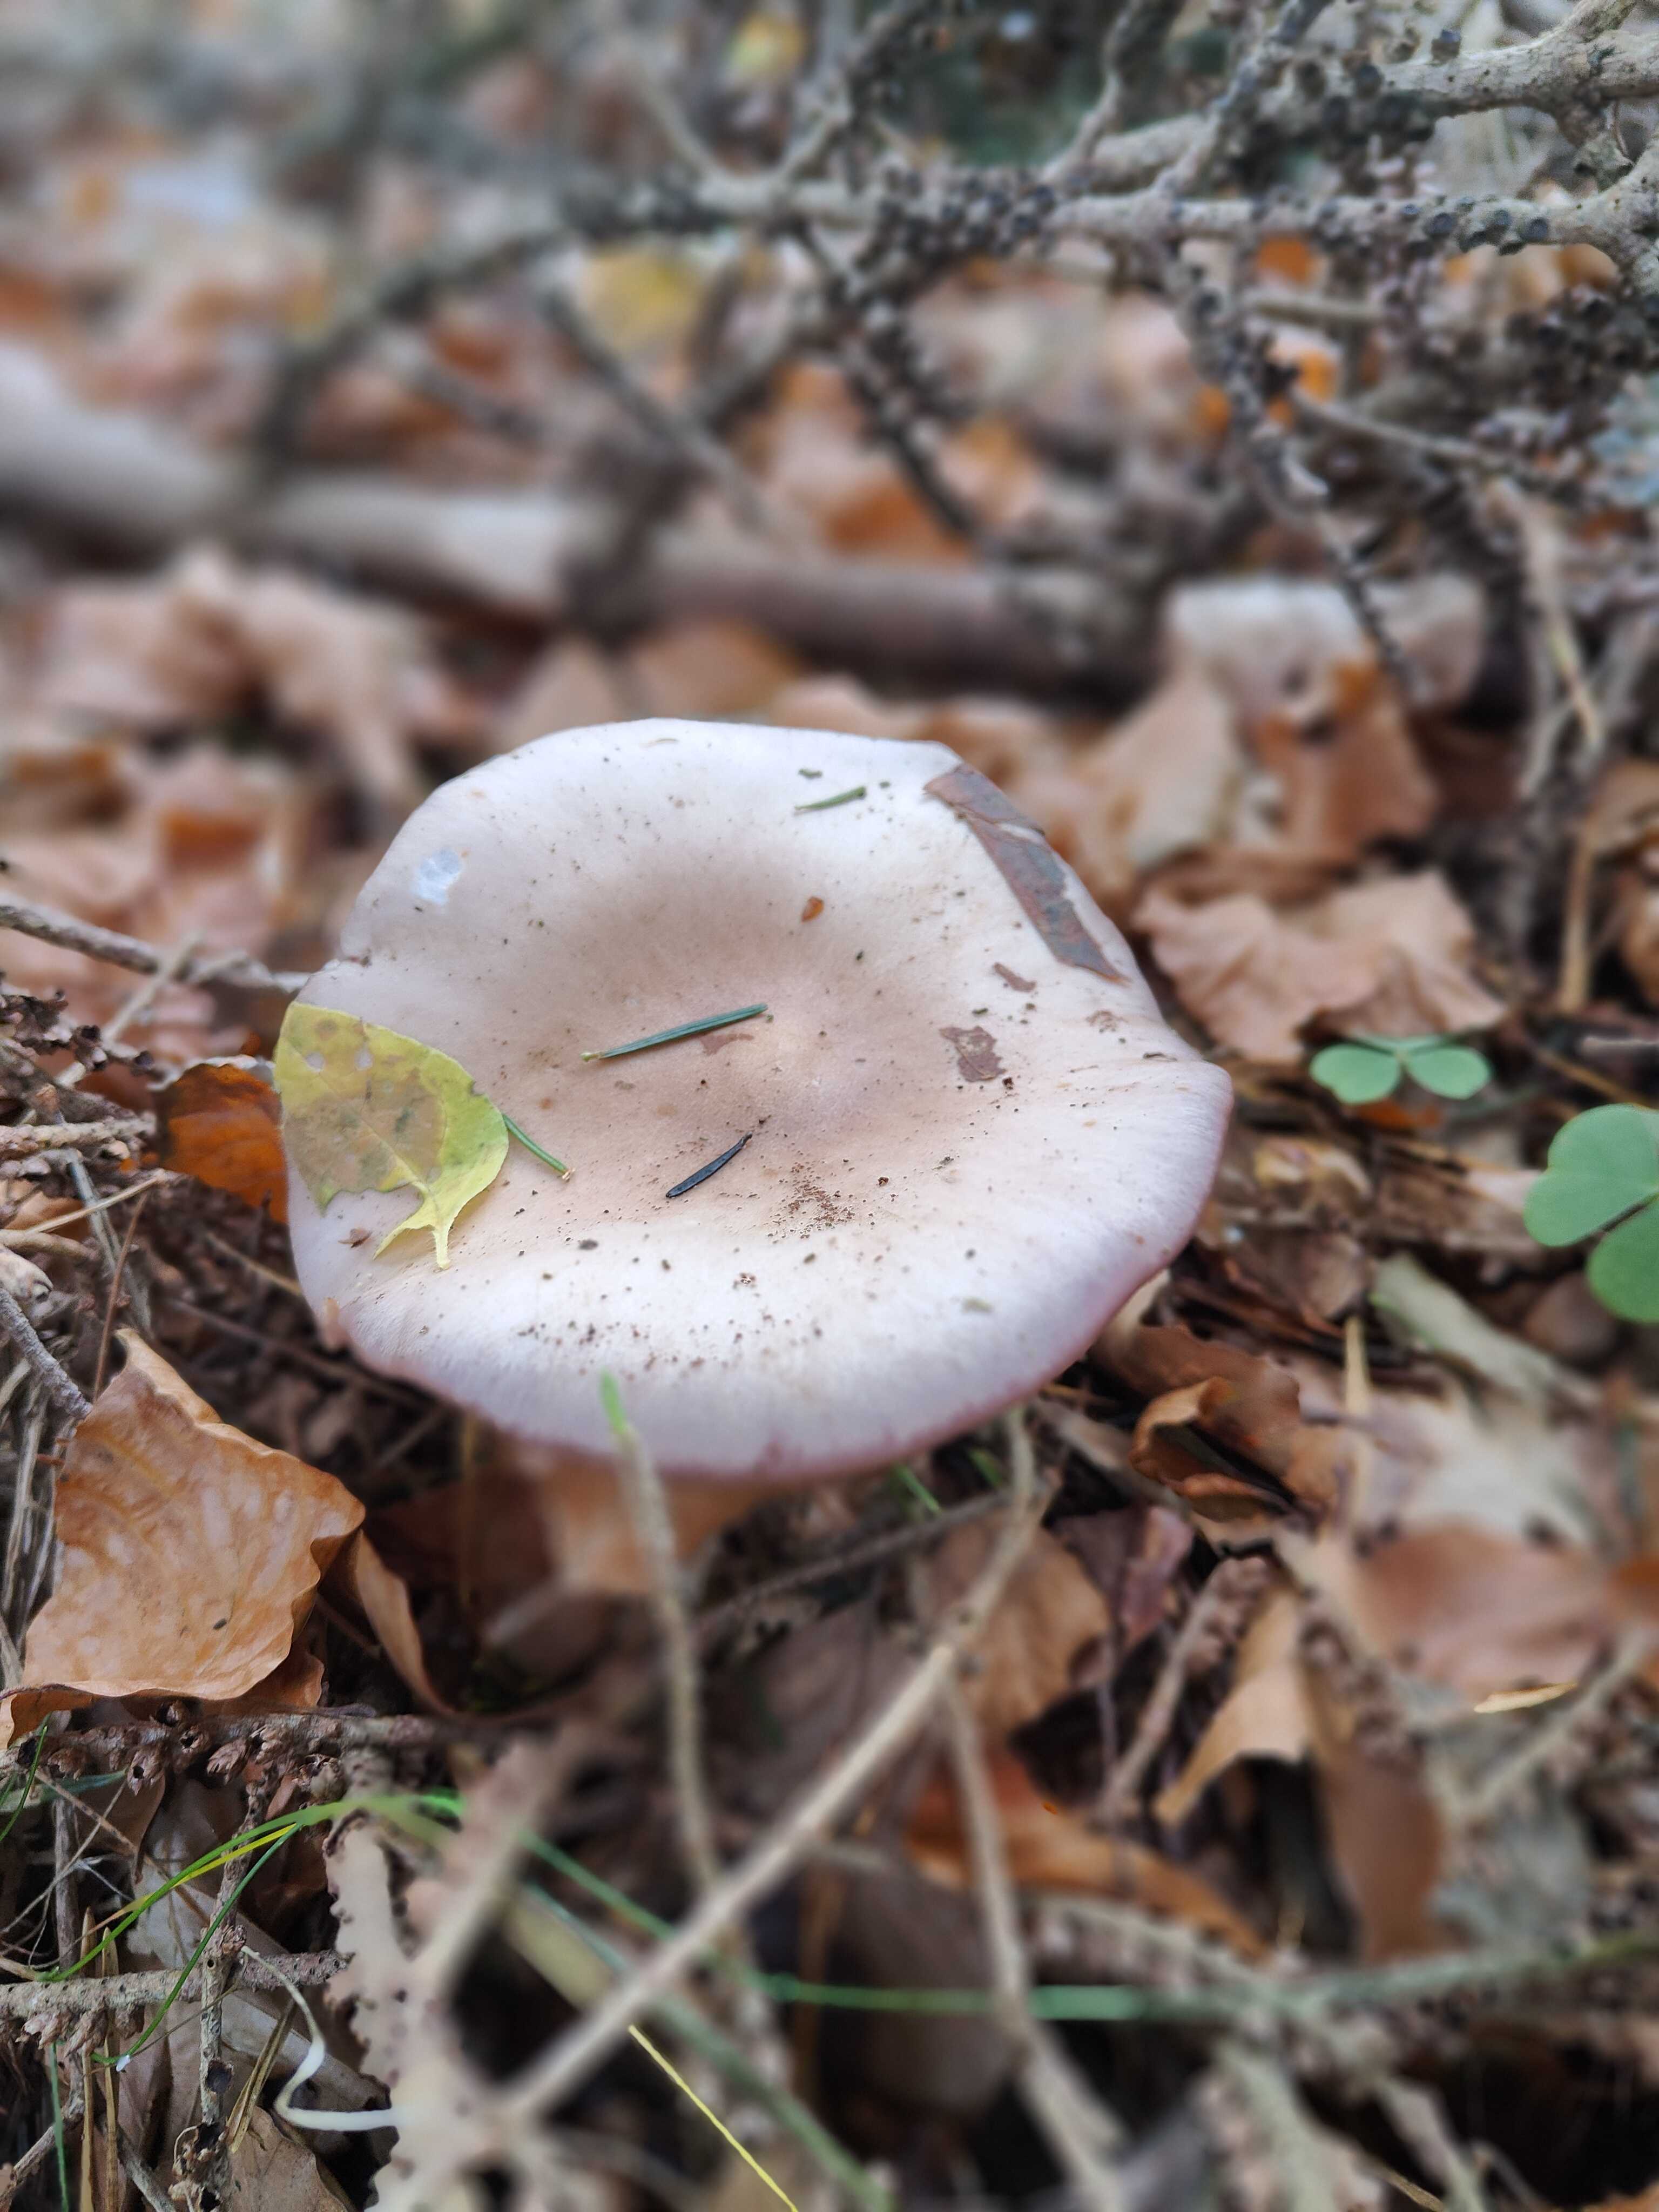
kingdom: Fungi
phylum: Basidiomycota
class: Agaricomycetes
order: Agaricales
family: Tricholomataceae
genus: Lepista
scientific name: Lepista nuda
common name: violet hekseringshat
